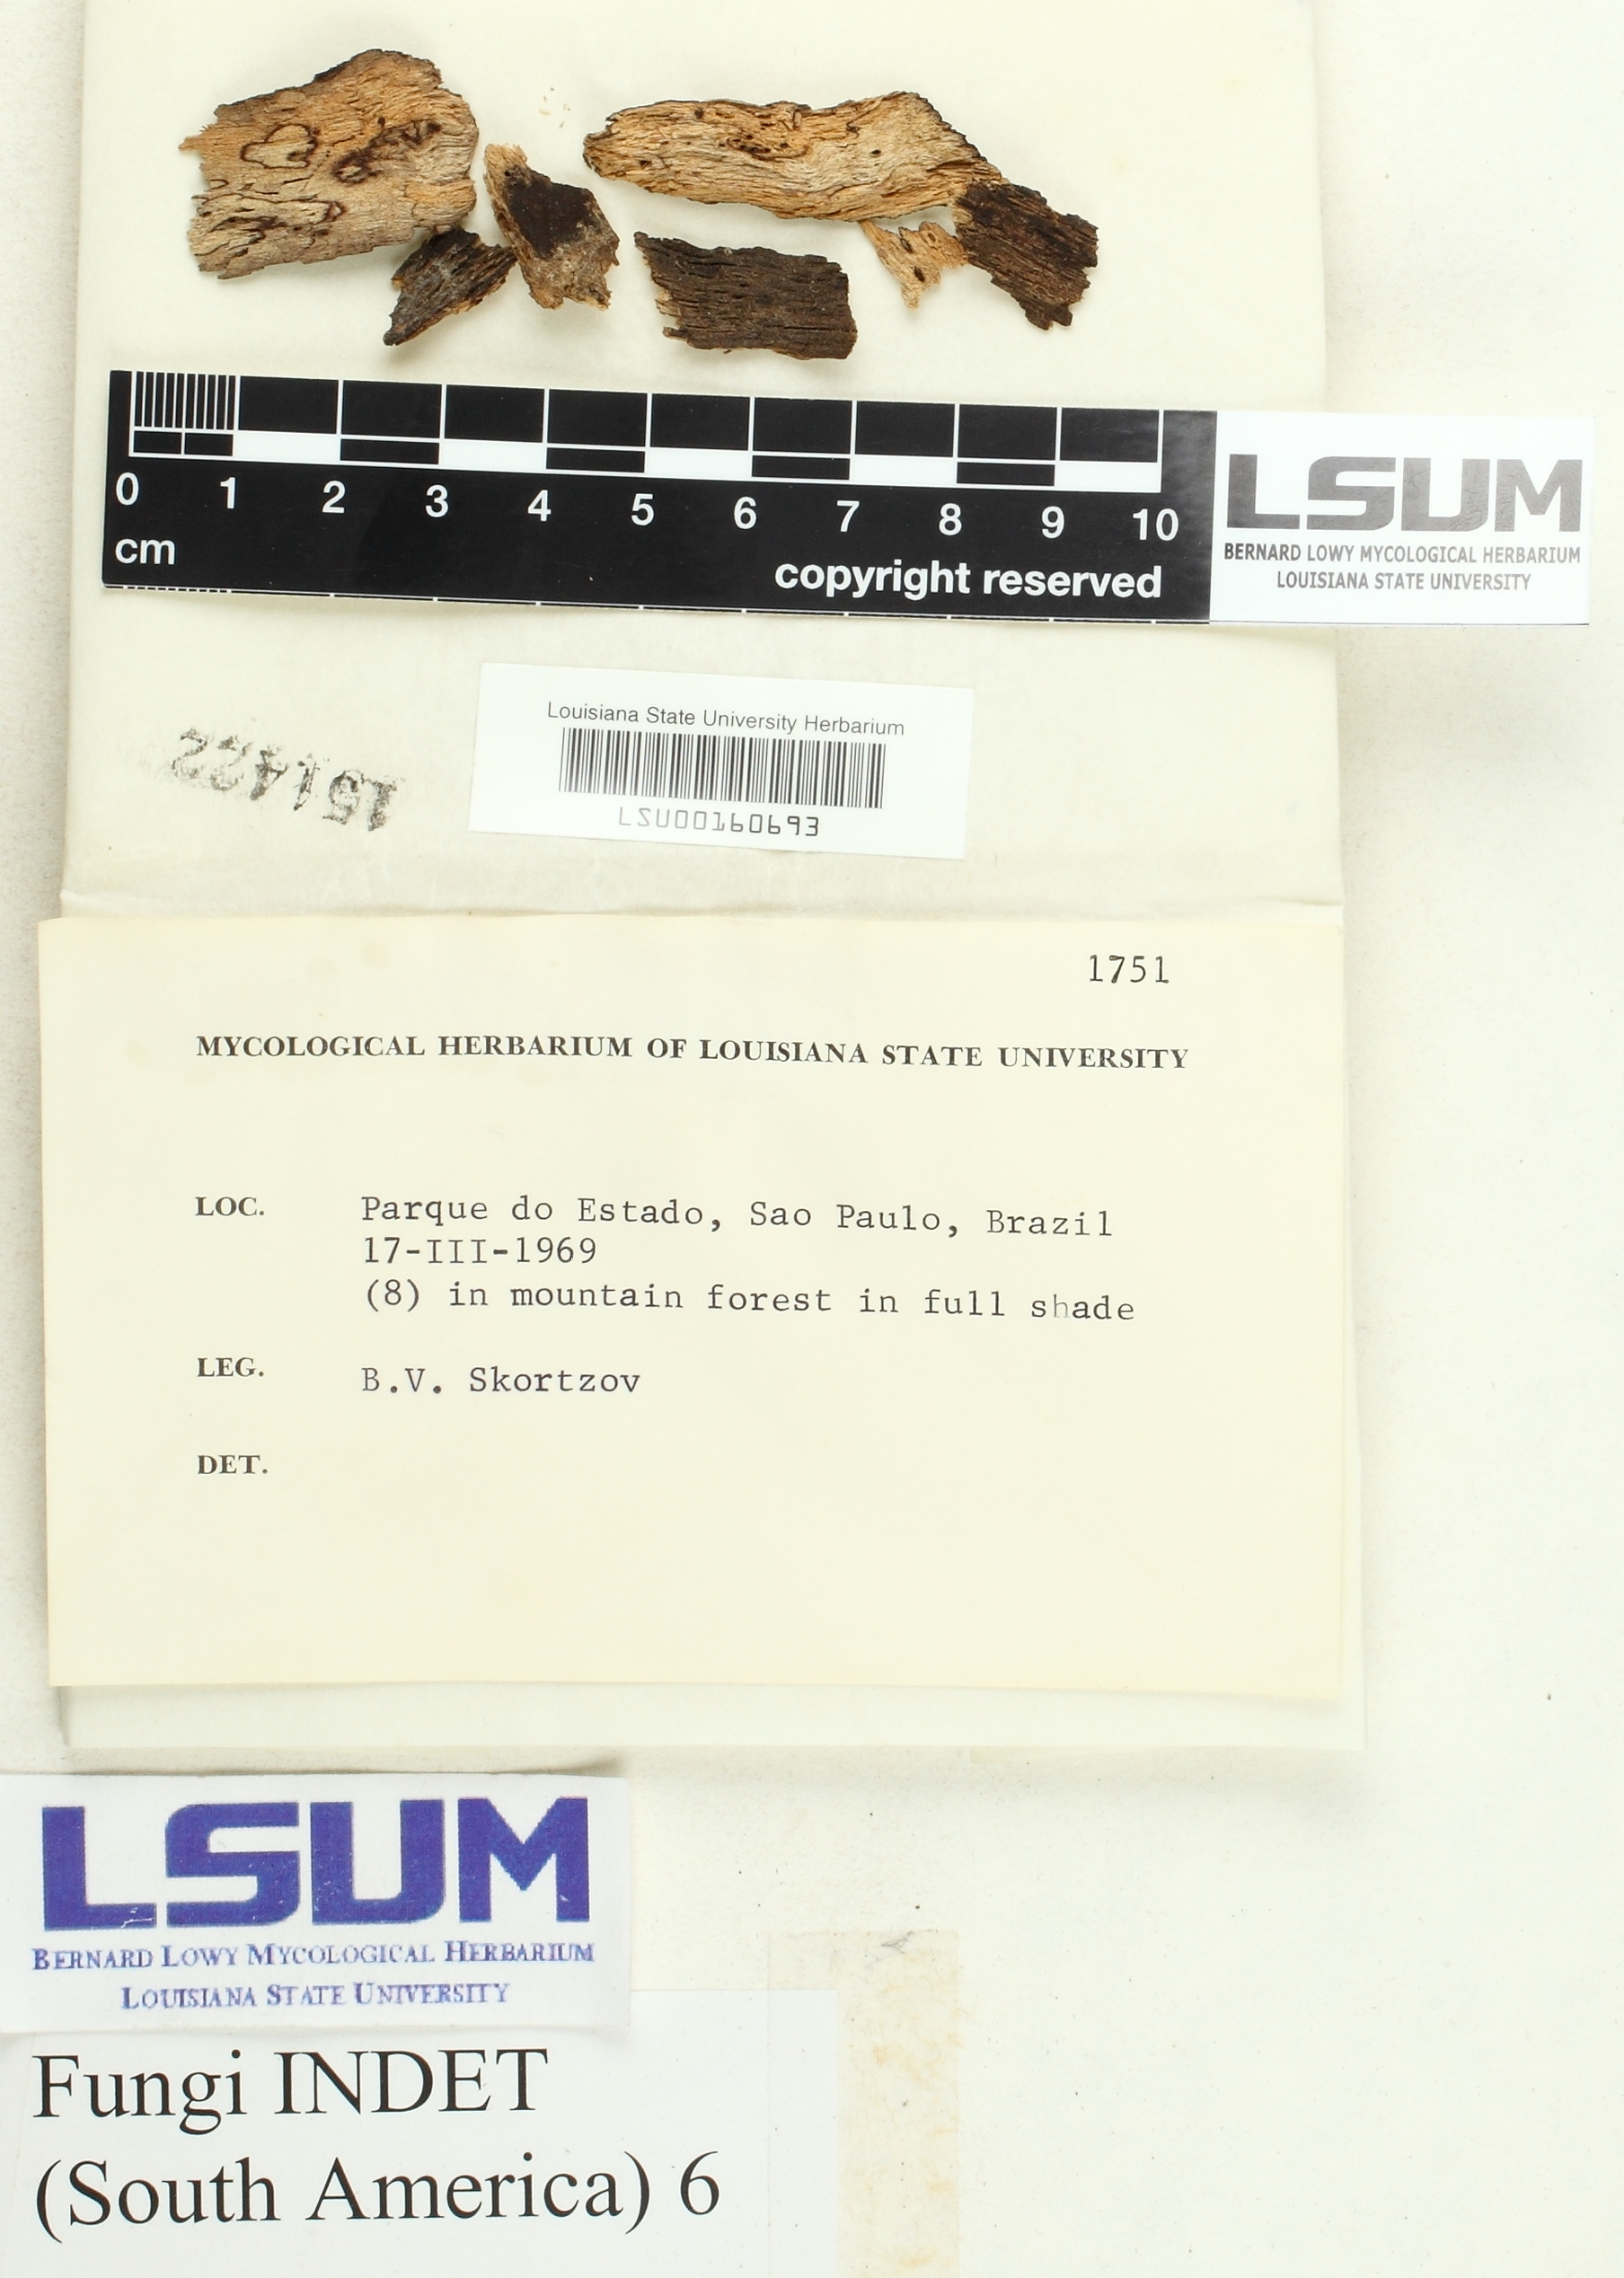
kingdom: Fungi
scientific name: Fungi
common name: Fungi
